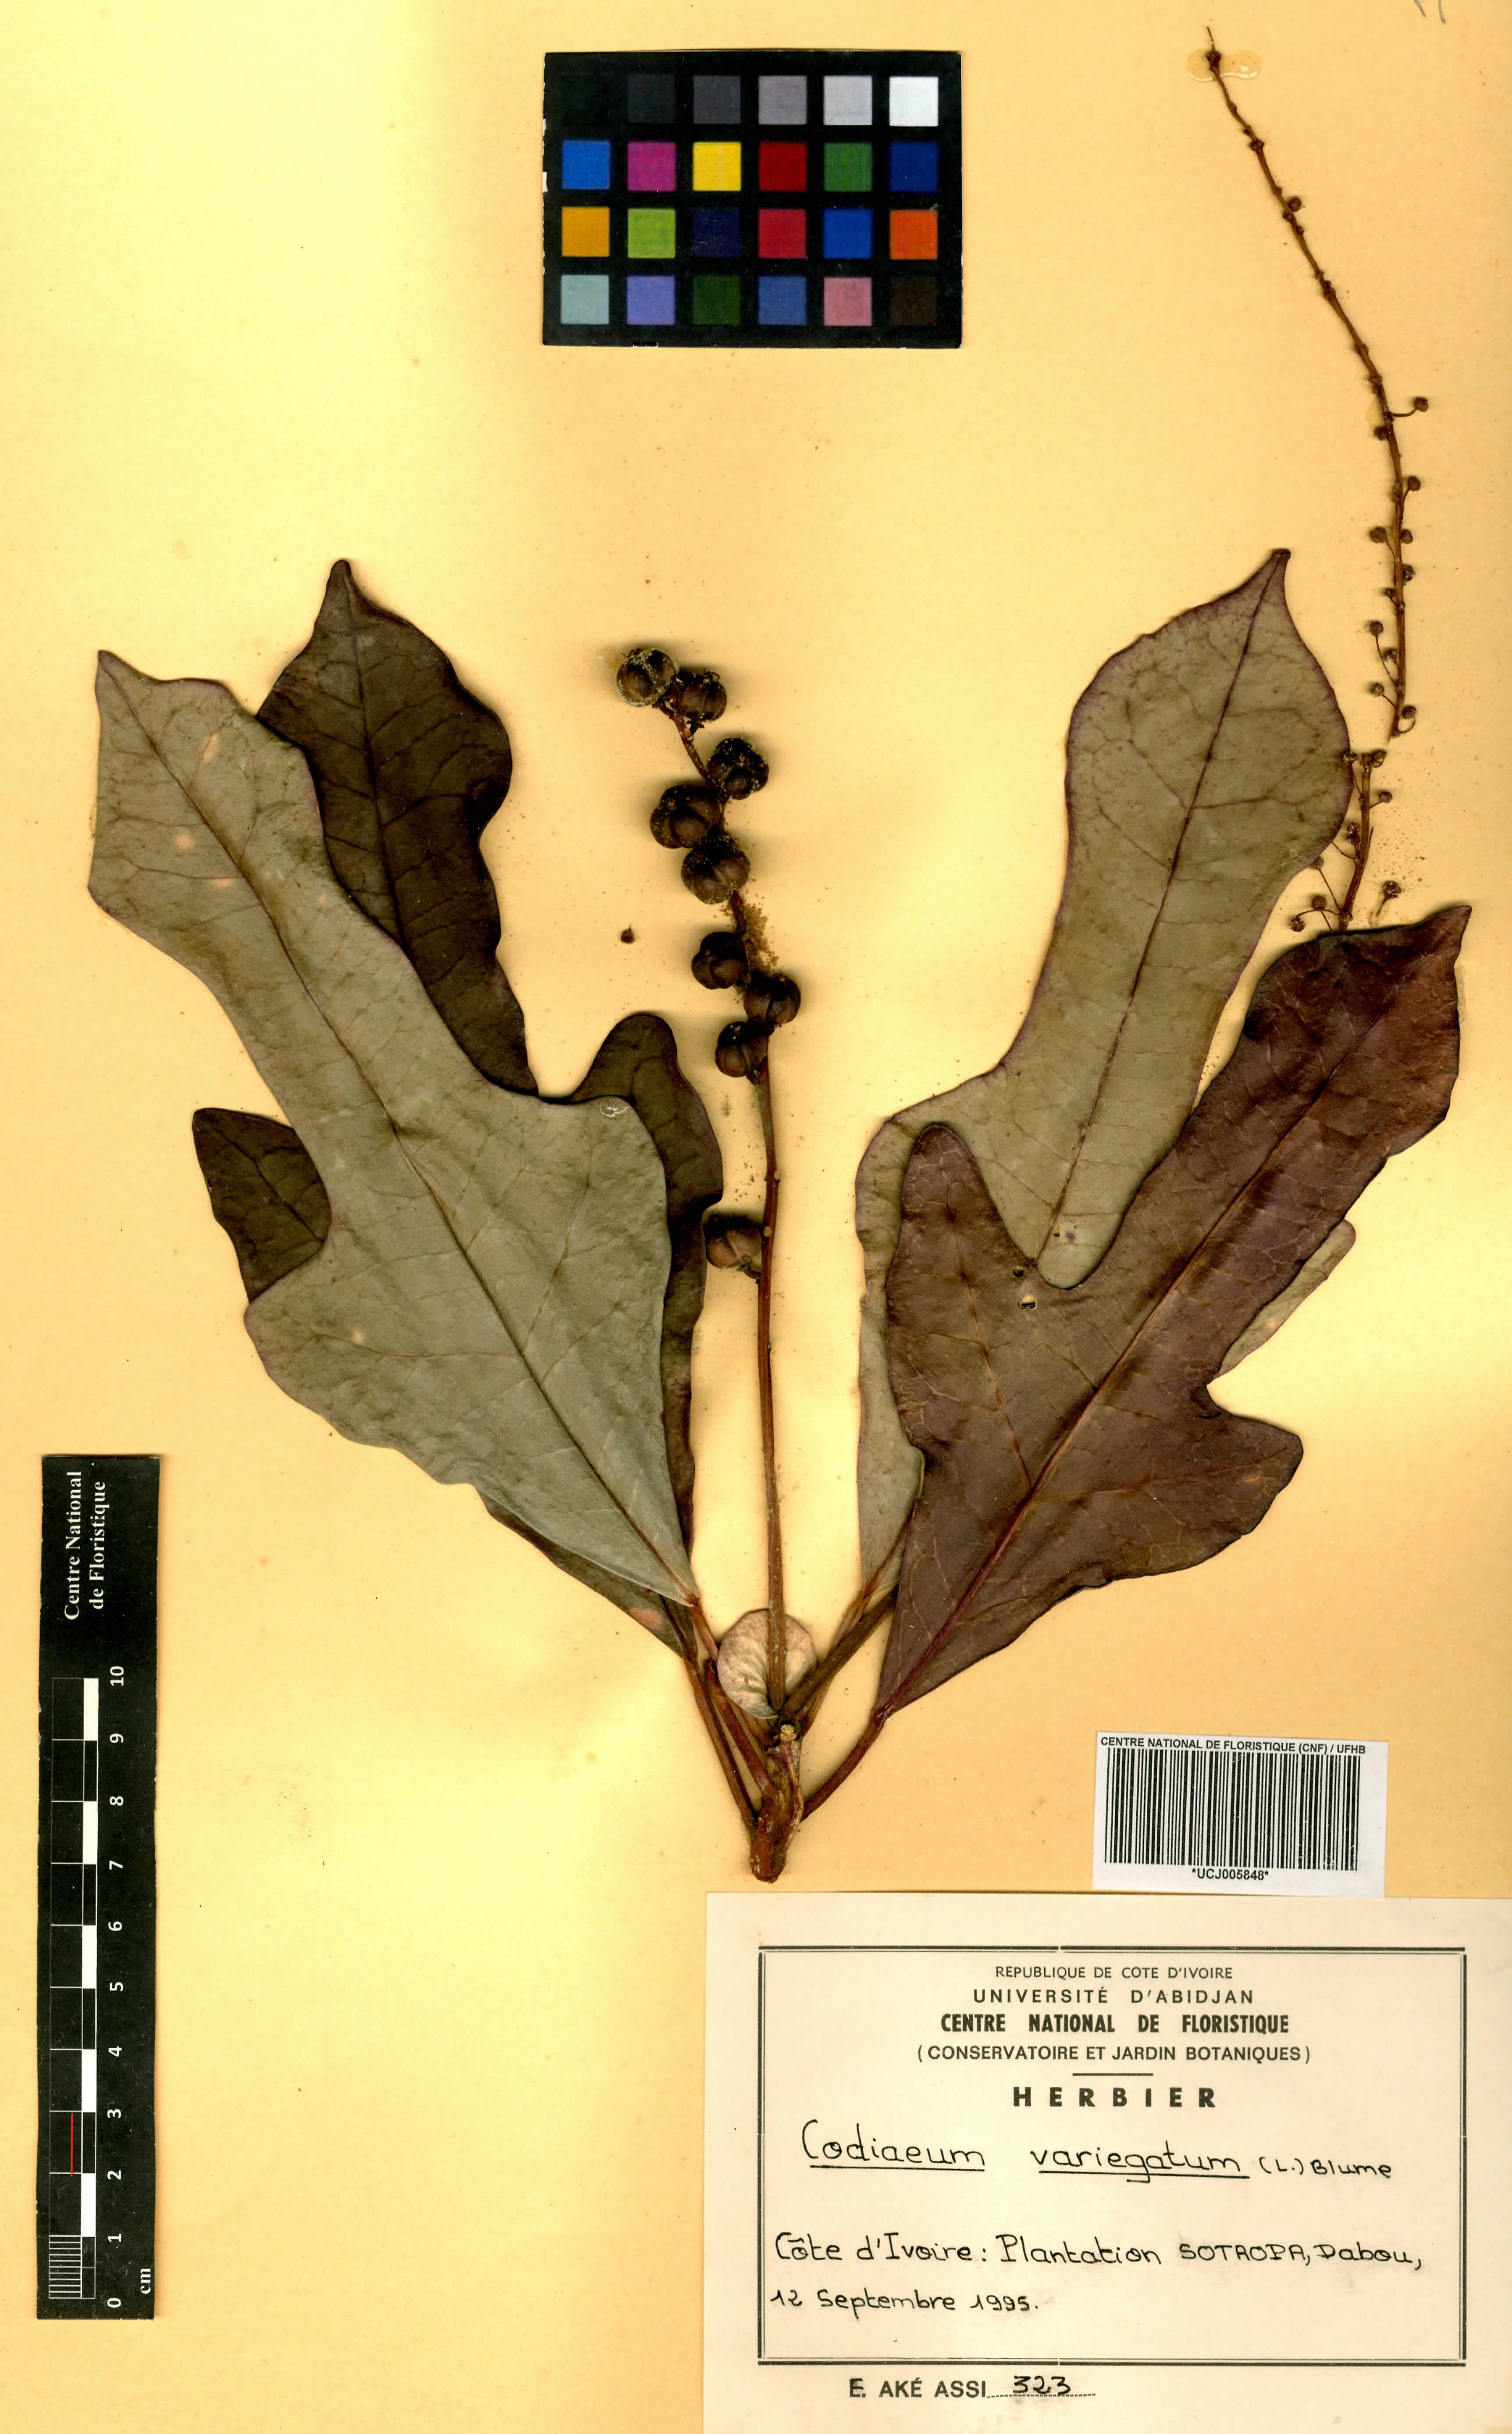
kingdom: Plantae
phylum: Tracheophyta
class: Magnoliopsida
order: Malpighiales
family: Euphorbiaceae
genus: Codiaeum
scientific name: Codiaeum variegatum
